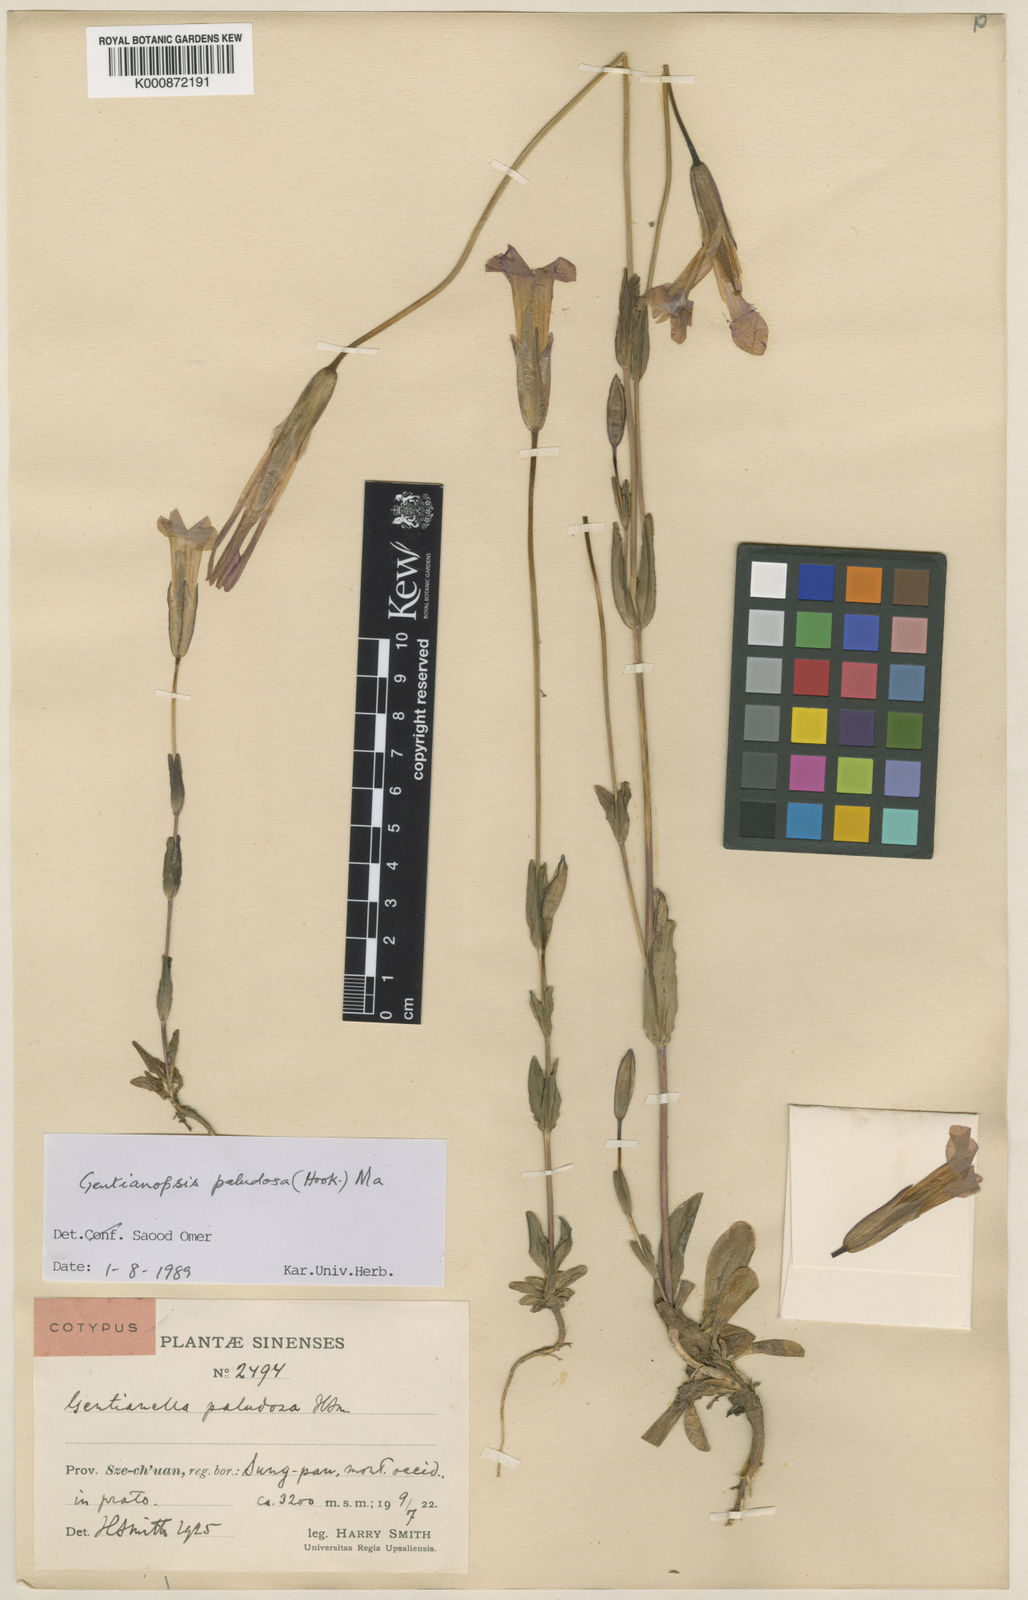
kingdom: Plantae
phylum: Tracheophyta
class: Magnoliopsida
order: Gentianales
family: Gentianaceae
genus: Gentianopsis
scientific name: Gentianopsis paludosa
